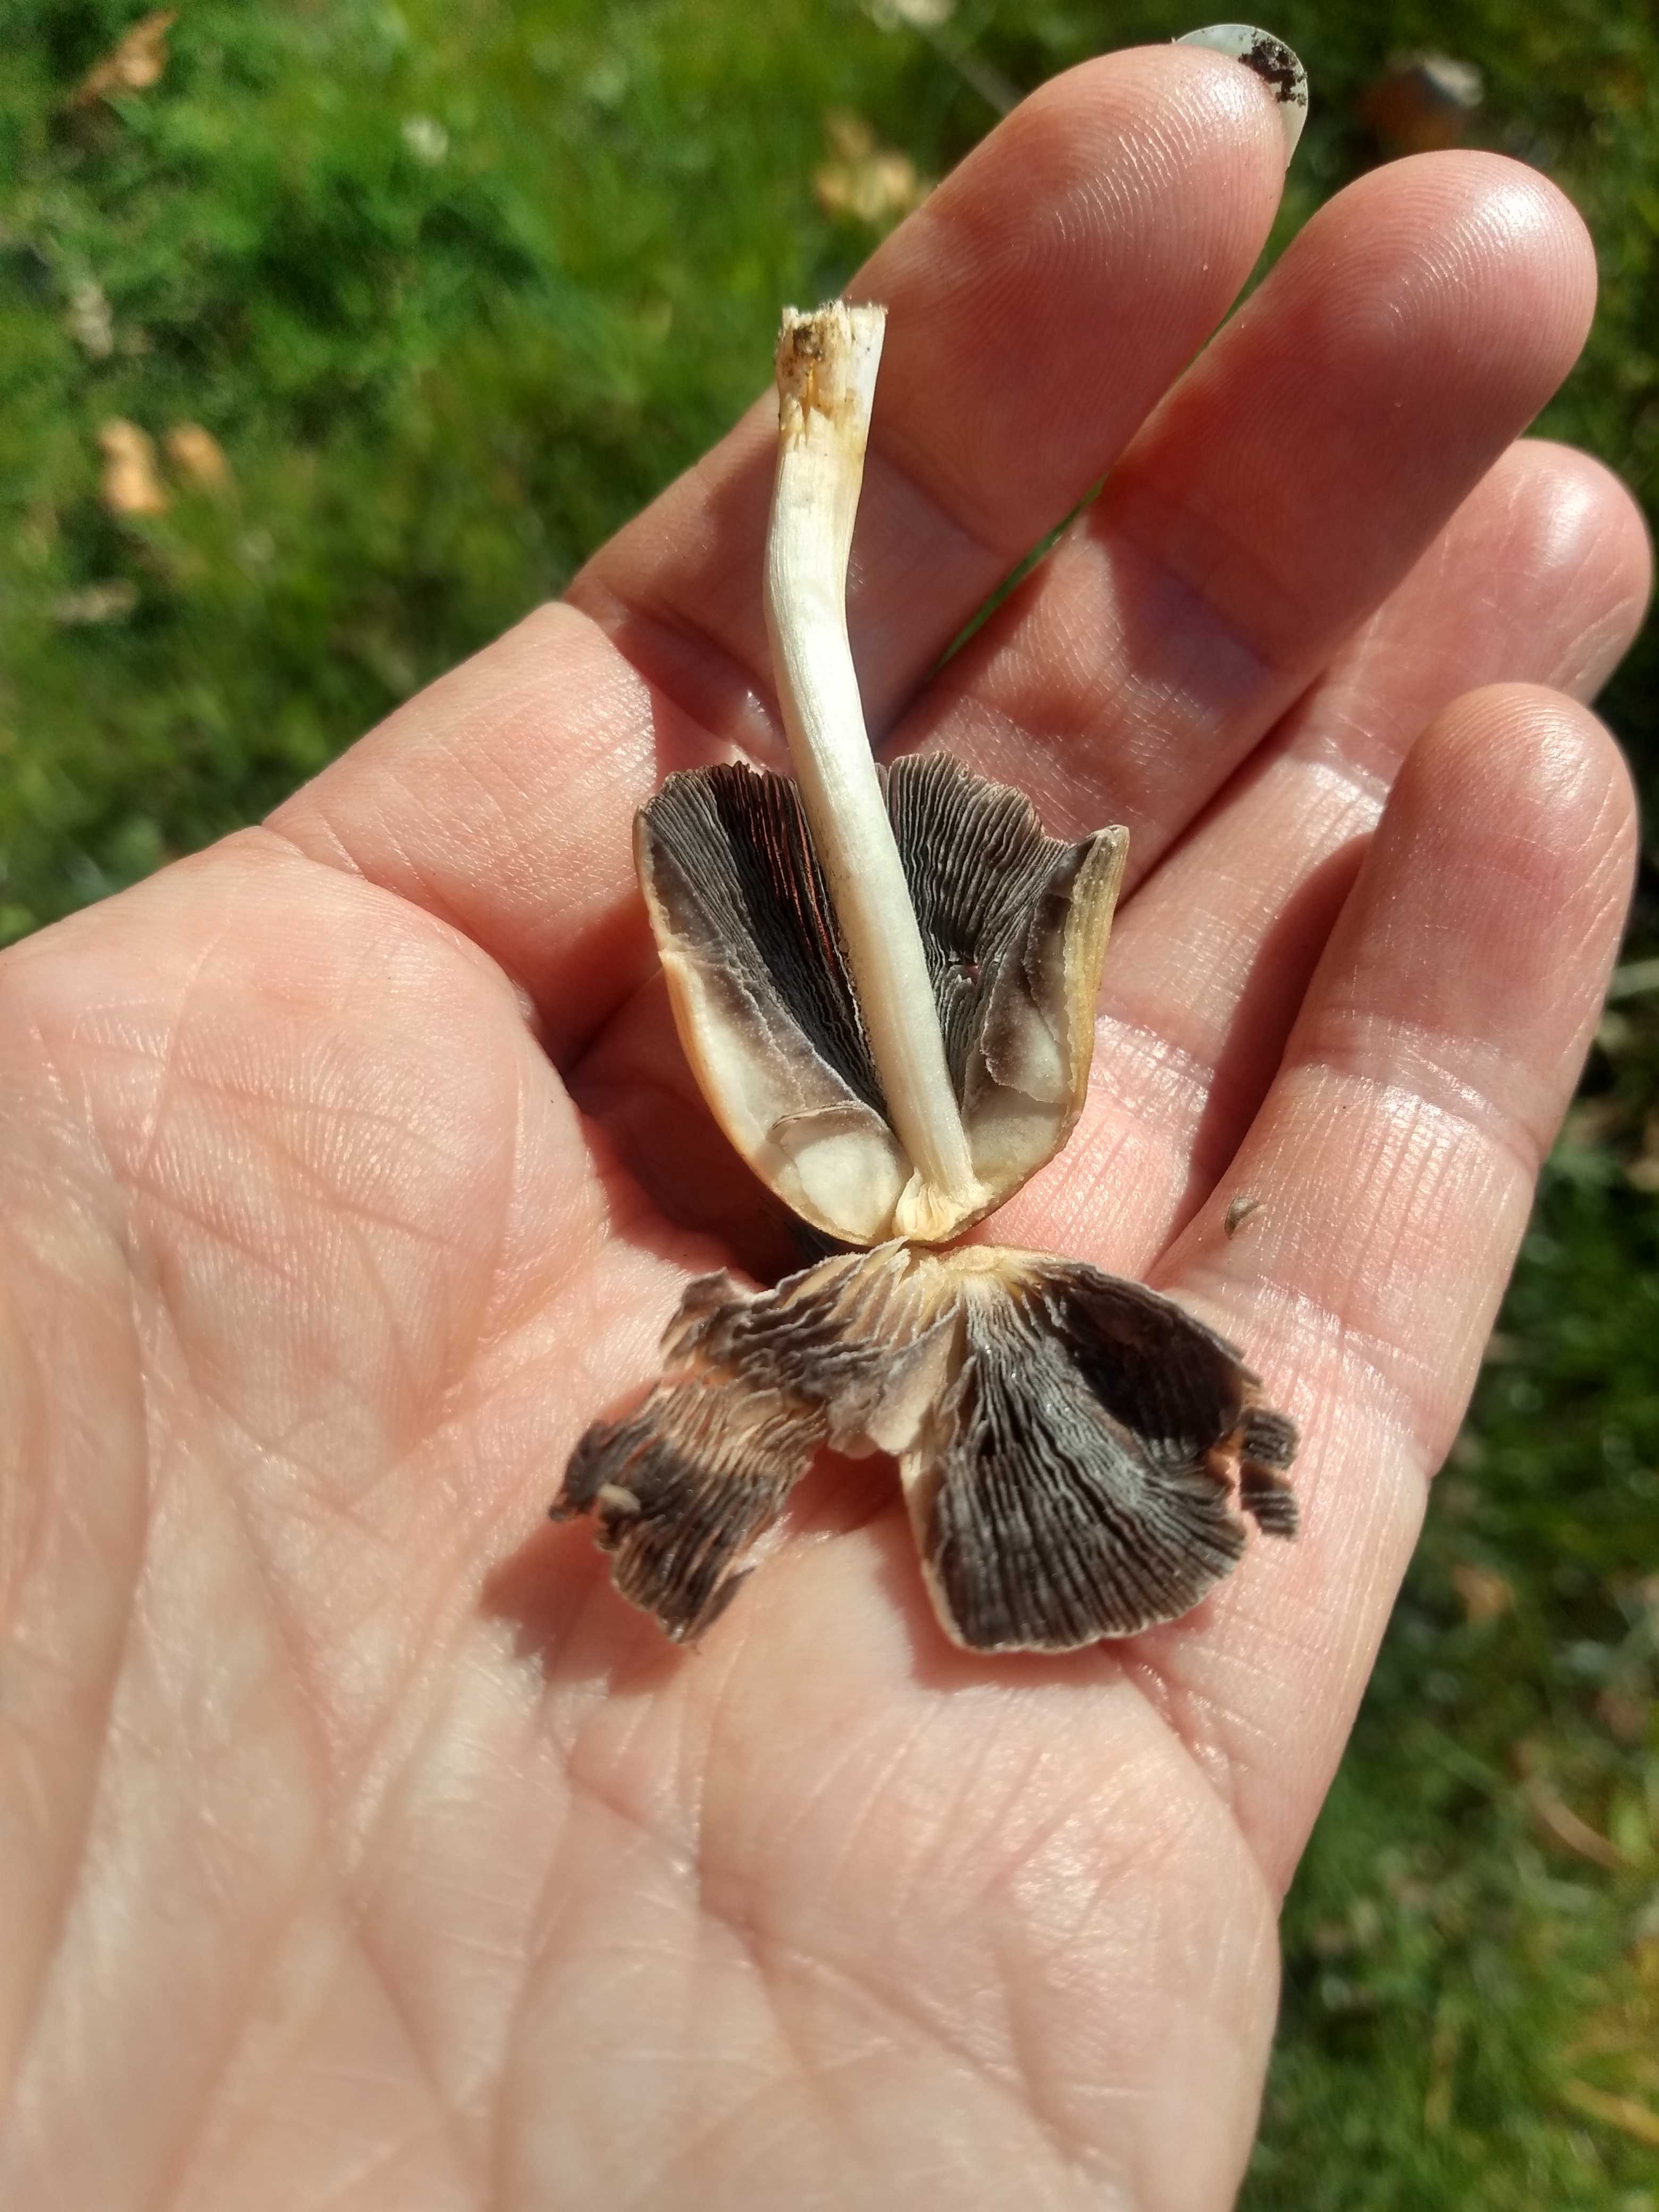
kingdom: Fungi
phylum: Basidiomycota
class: Agaricomycetes
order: Agaricales
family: Psathyrellaceae
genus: Coprinellus
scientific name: Coprinellus
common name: blækhat
